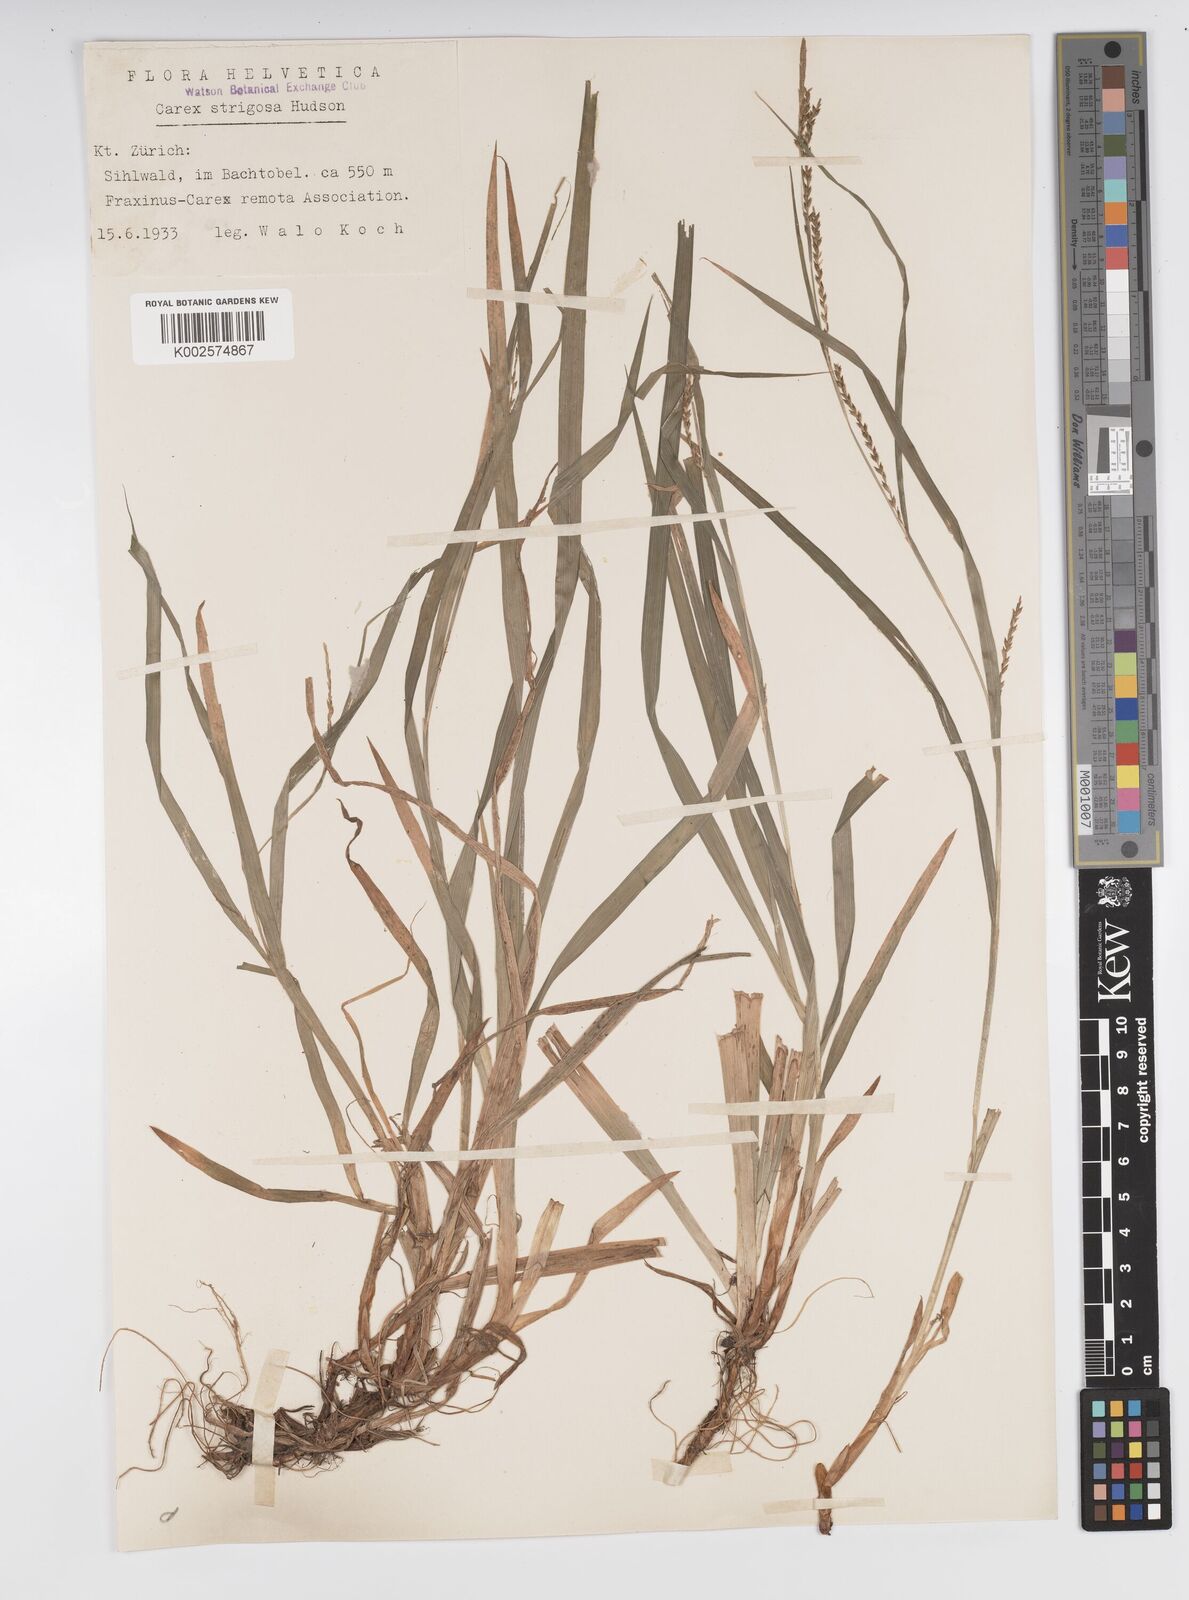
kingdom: Plantae
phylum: Tracheophyta
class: Liliopsida
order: Poales
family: Cyperaceae
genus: Carex
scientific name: Carex strigosa
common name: Thin-spiked wood-sedge
